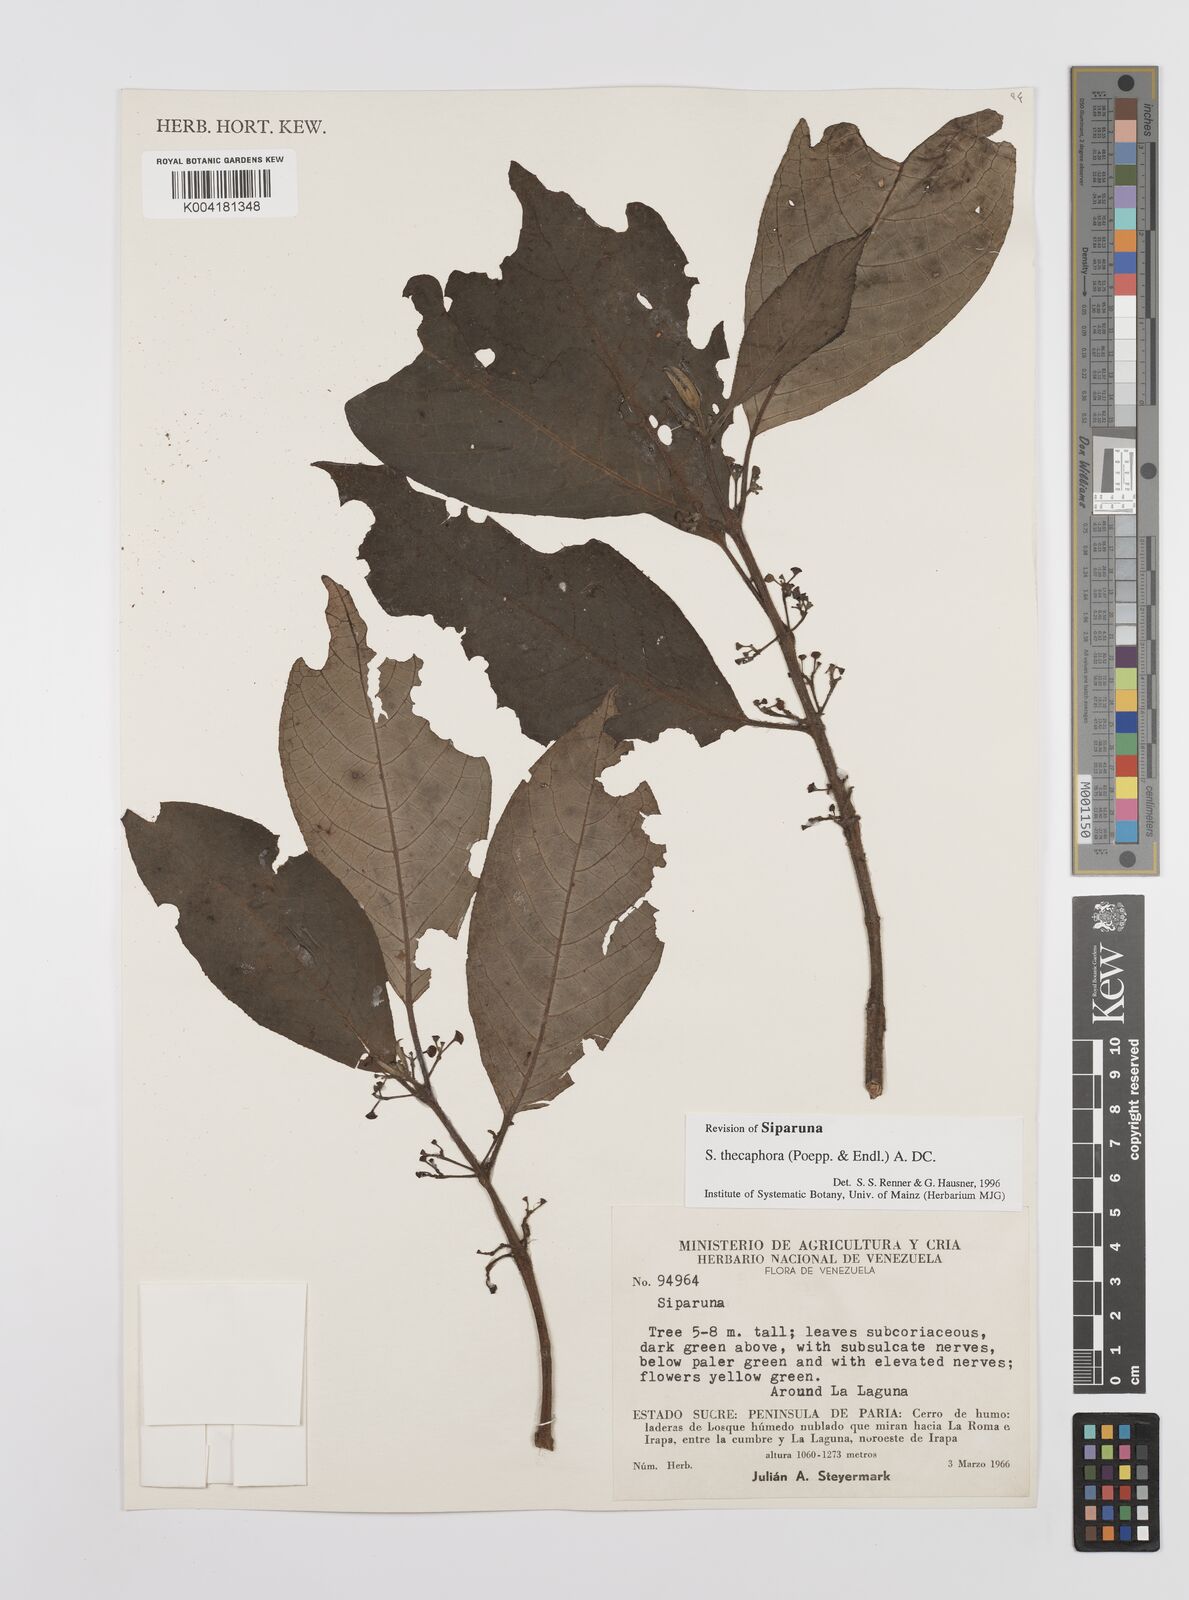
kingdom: Plantae
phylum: Tracheophyta
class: Magnoliopsida
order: Laurales
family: Siparunaceae
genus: Siparuna
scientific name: Siparuna thecaphora
